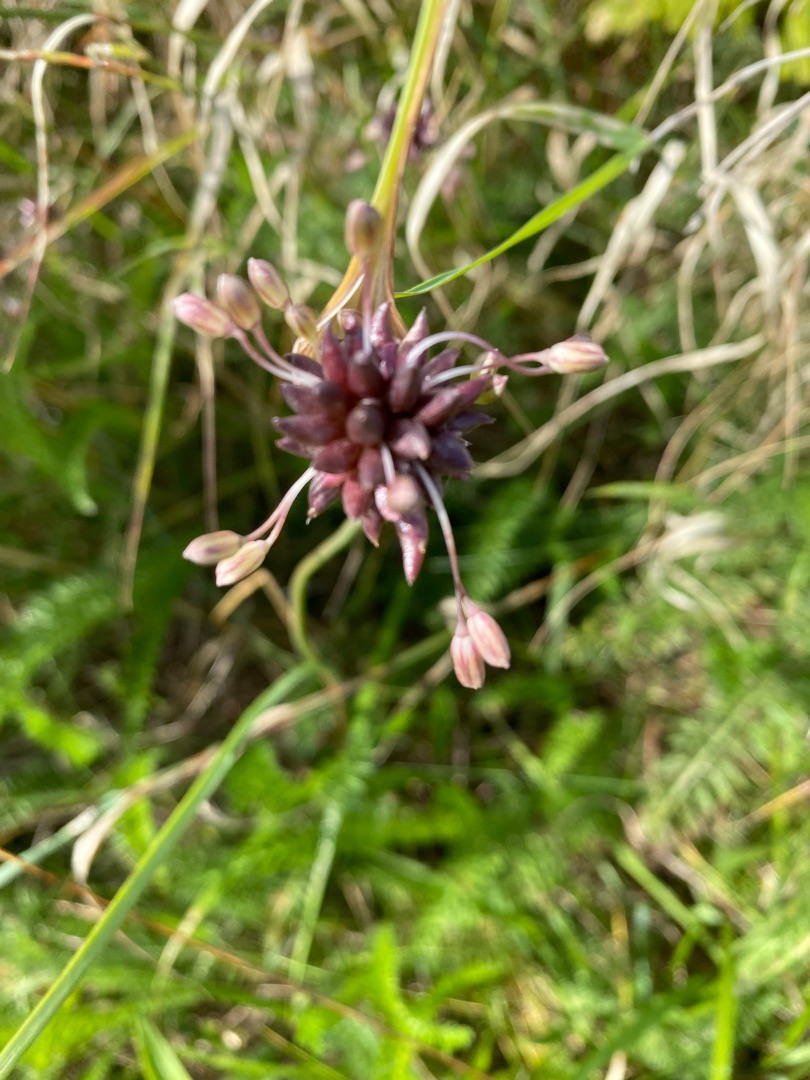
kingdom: Plantae
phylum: Tracheophyta
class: Liliopsida
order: Asparagales
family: Amaryllidaceae
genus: Allium
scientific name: Allium oleraceum
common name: Vild løg
